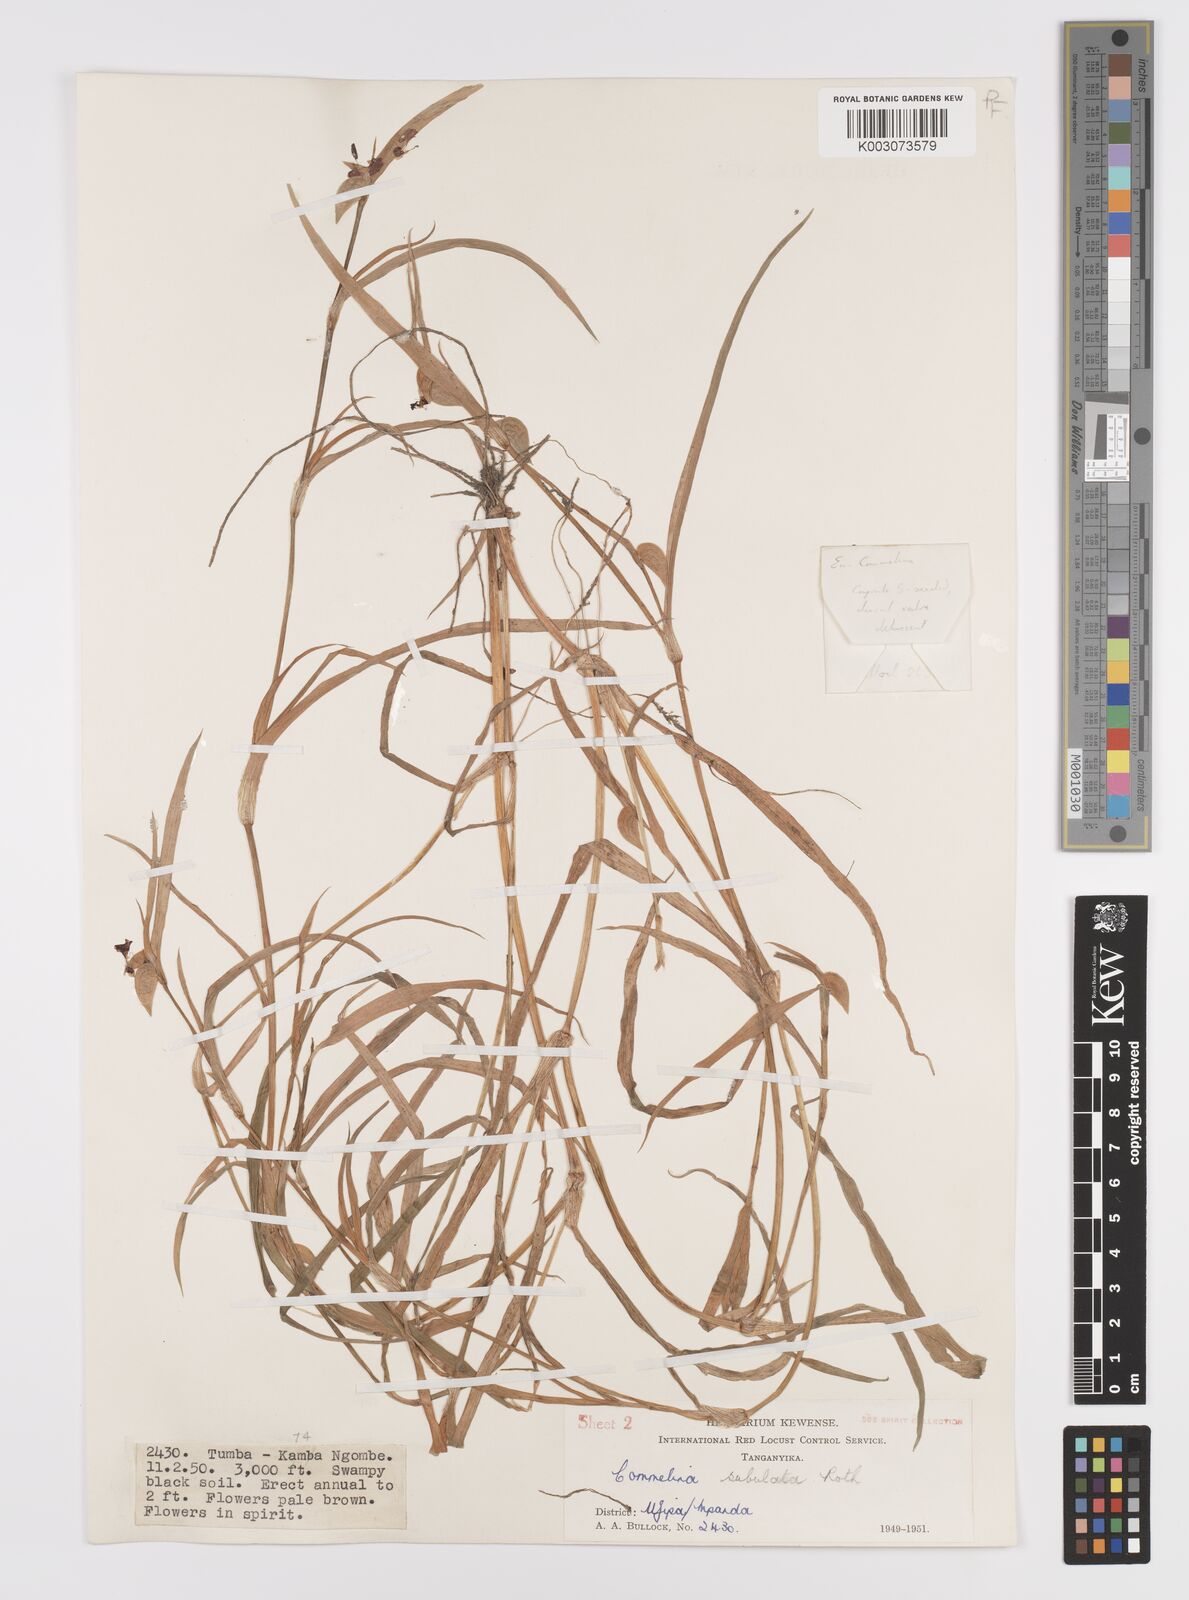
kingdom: Plantae
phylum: Tracheophyta
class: Liliopsida
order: Commelinales
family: Commelinaceae
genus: Commelina
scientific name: Commelina subulata
